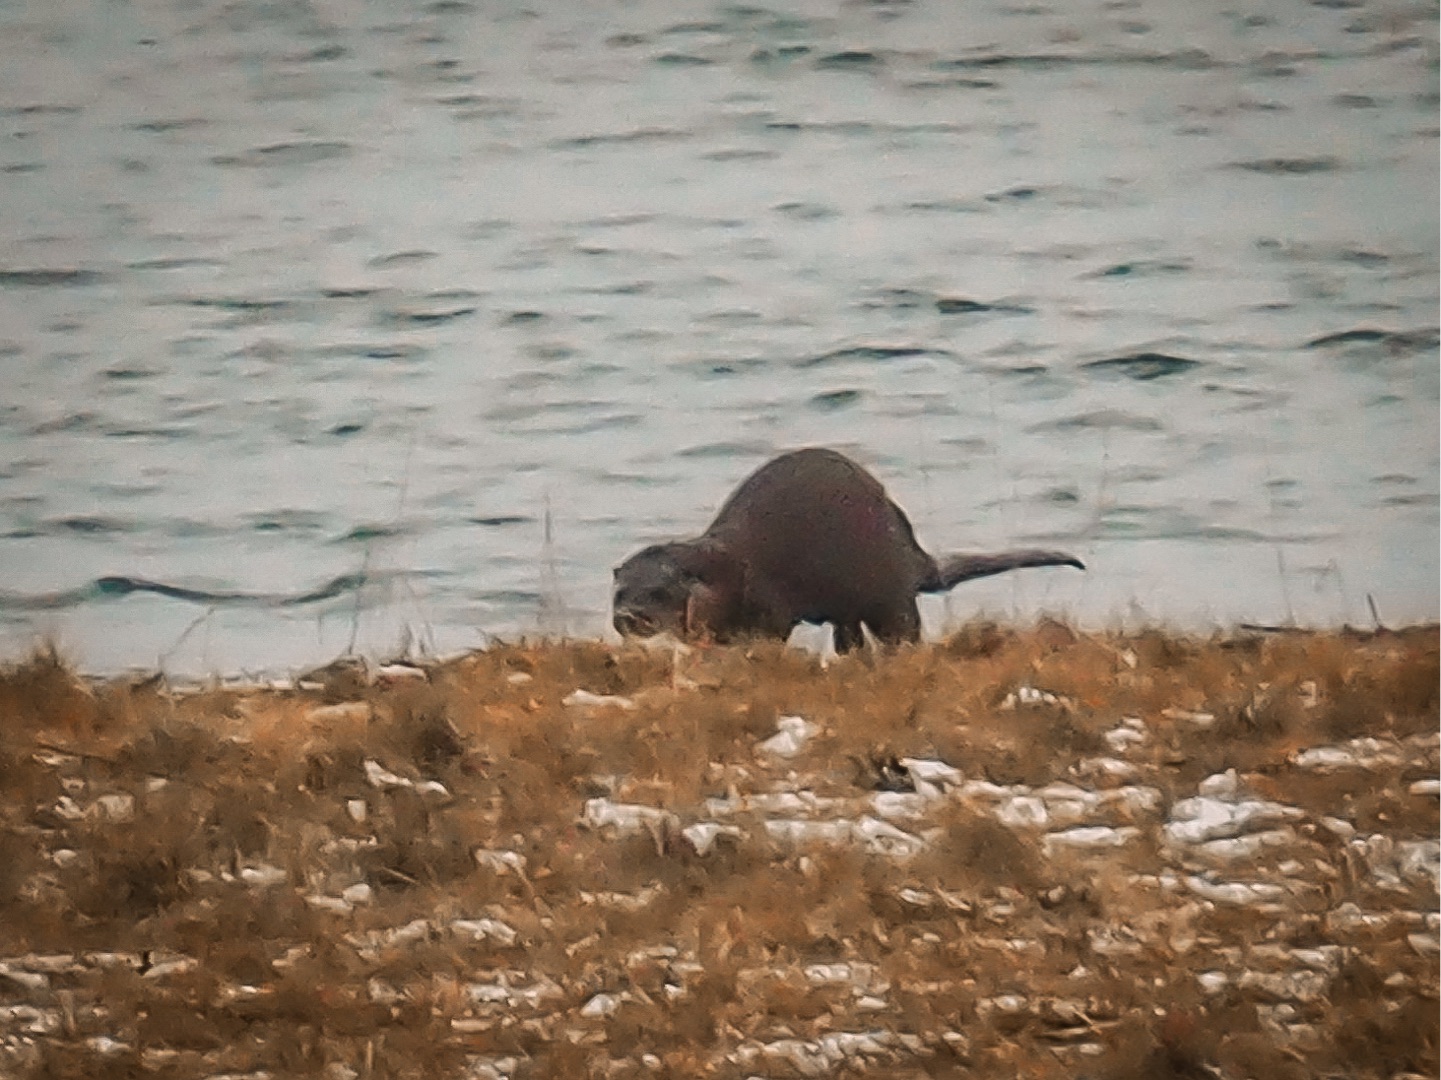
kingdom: Animalia
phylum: Chordata
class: Mammalia
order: Carnivora
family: Mustelidae
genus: Lutra
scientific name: Lutra lutra
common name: Odder
